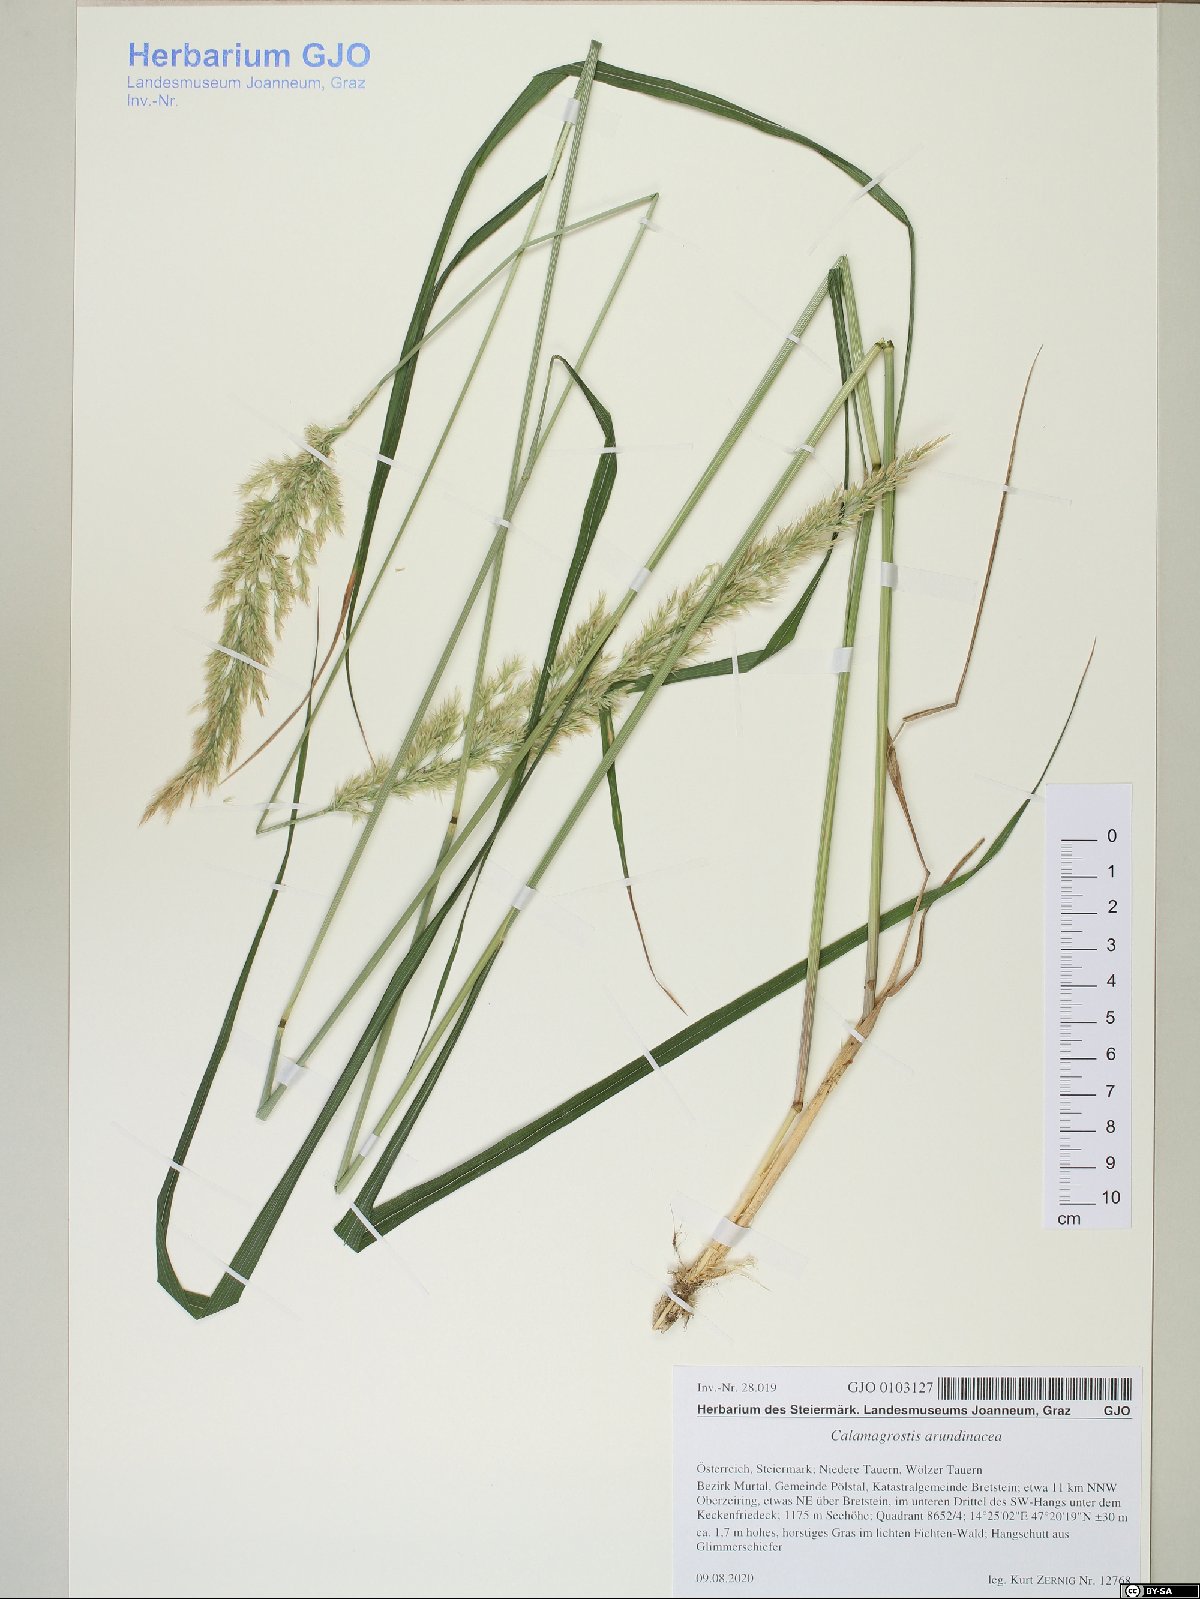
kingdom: Plantae
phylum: Tracheophyta
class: Liliopsida
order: Poales
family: Poaceae
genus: Calamagrostis
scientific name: Calamagrostis arundinacea
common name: Metskastik
